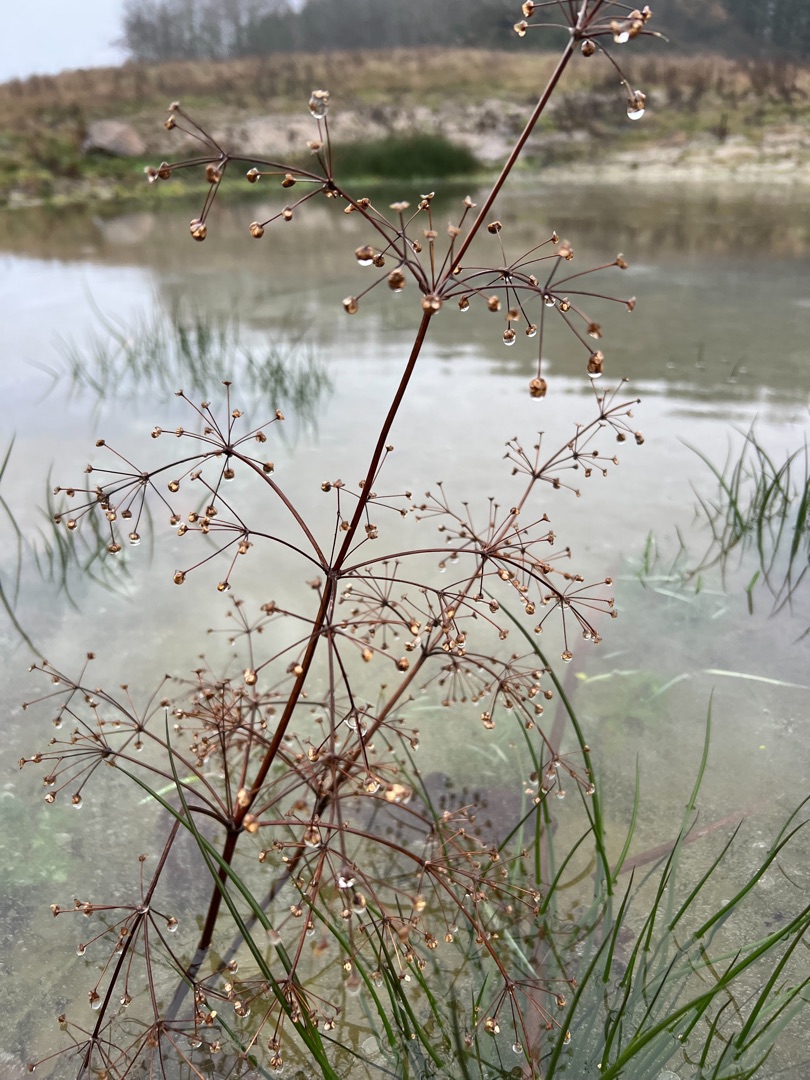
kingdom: Plantae
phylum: Tracheophyta
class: Liliopsida
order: Alismatales
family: Alismataceae
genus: Alisma
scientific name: Alisma plantago-aquatica
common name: Vejbred-skeblad
